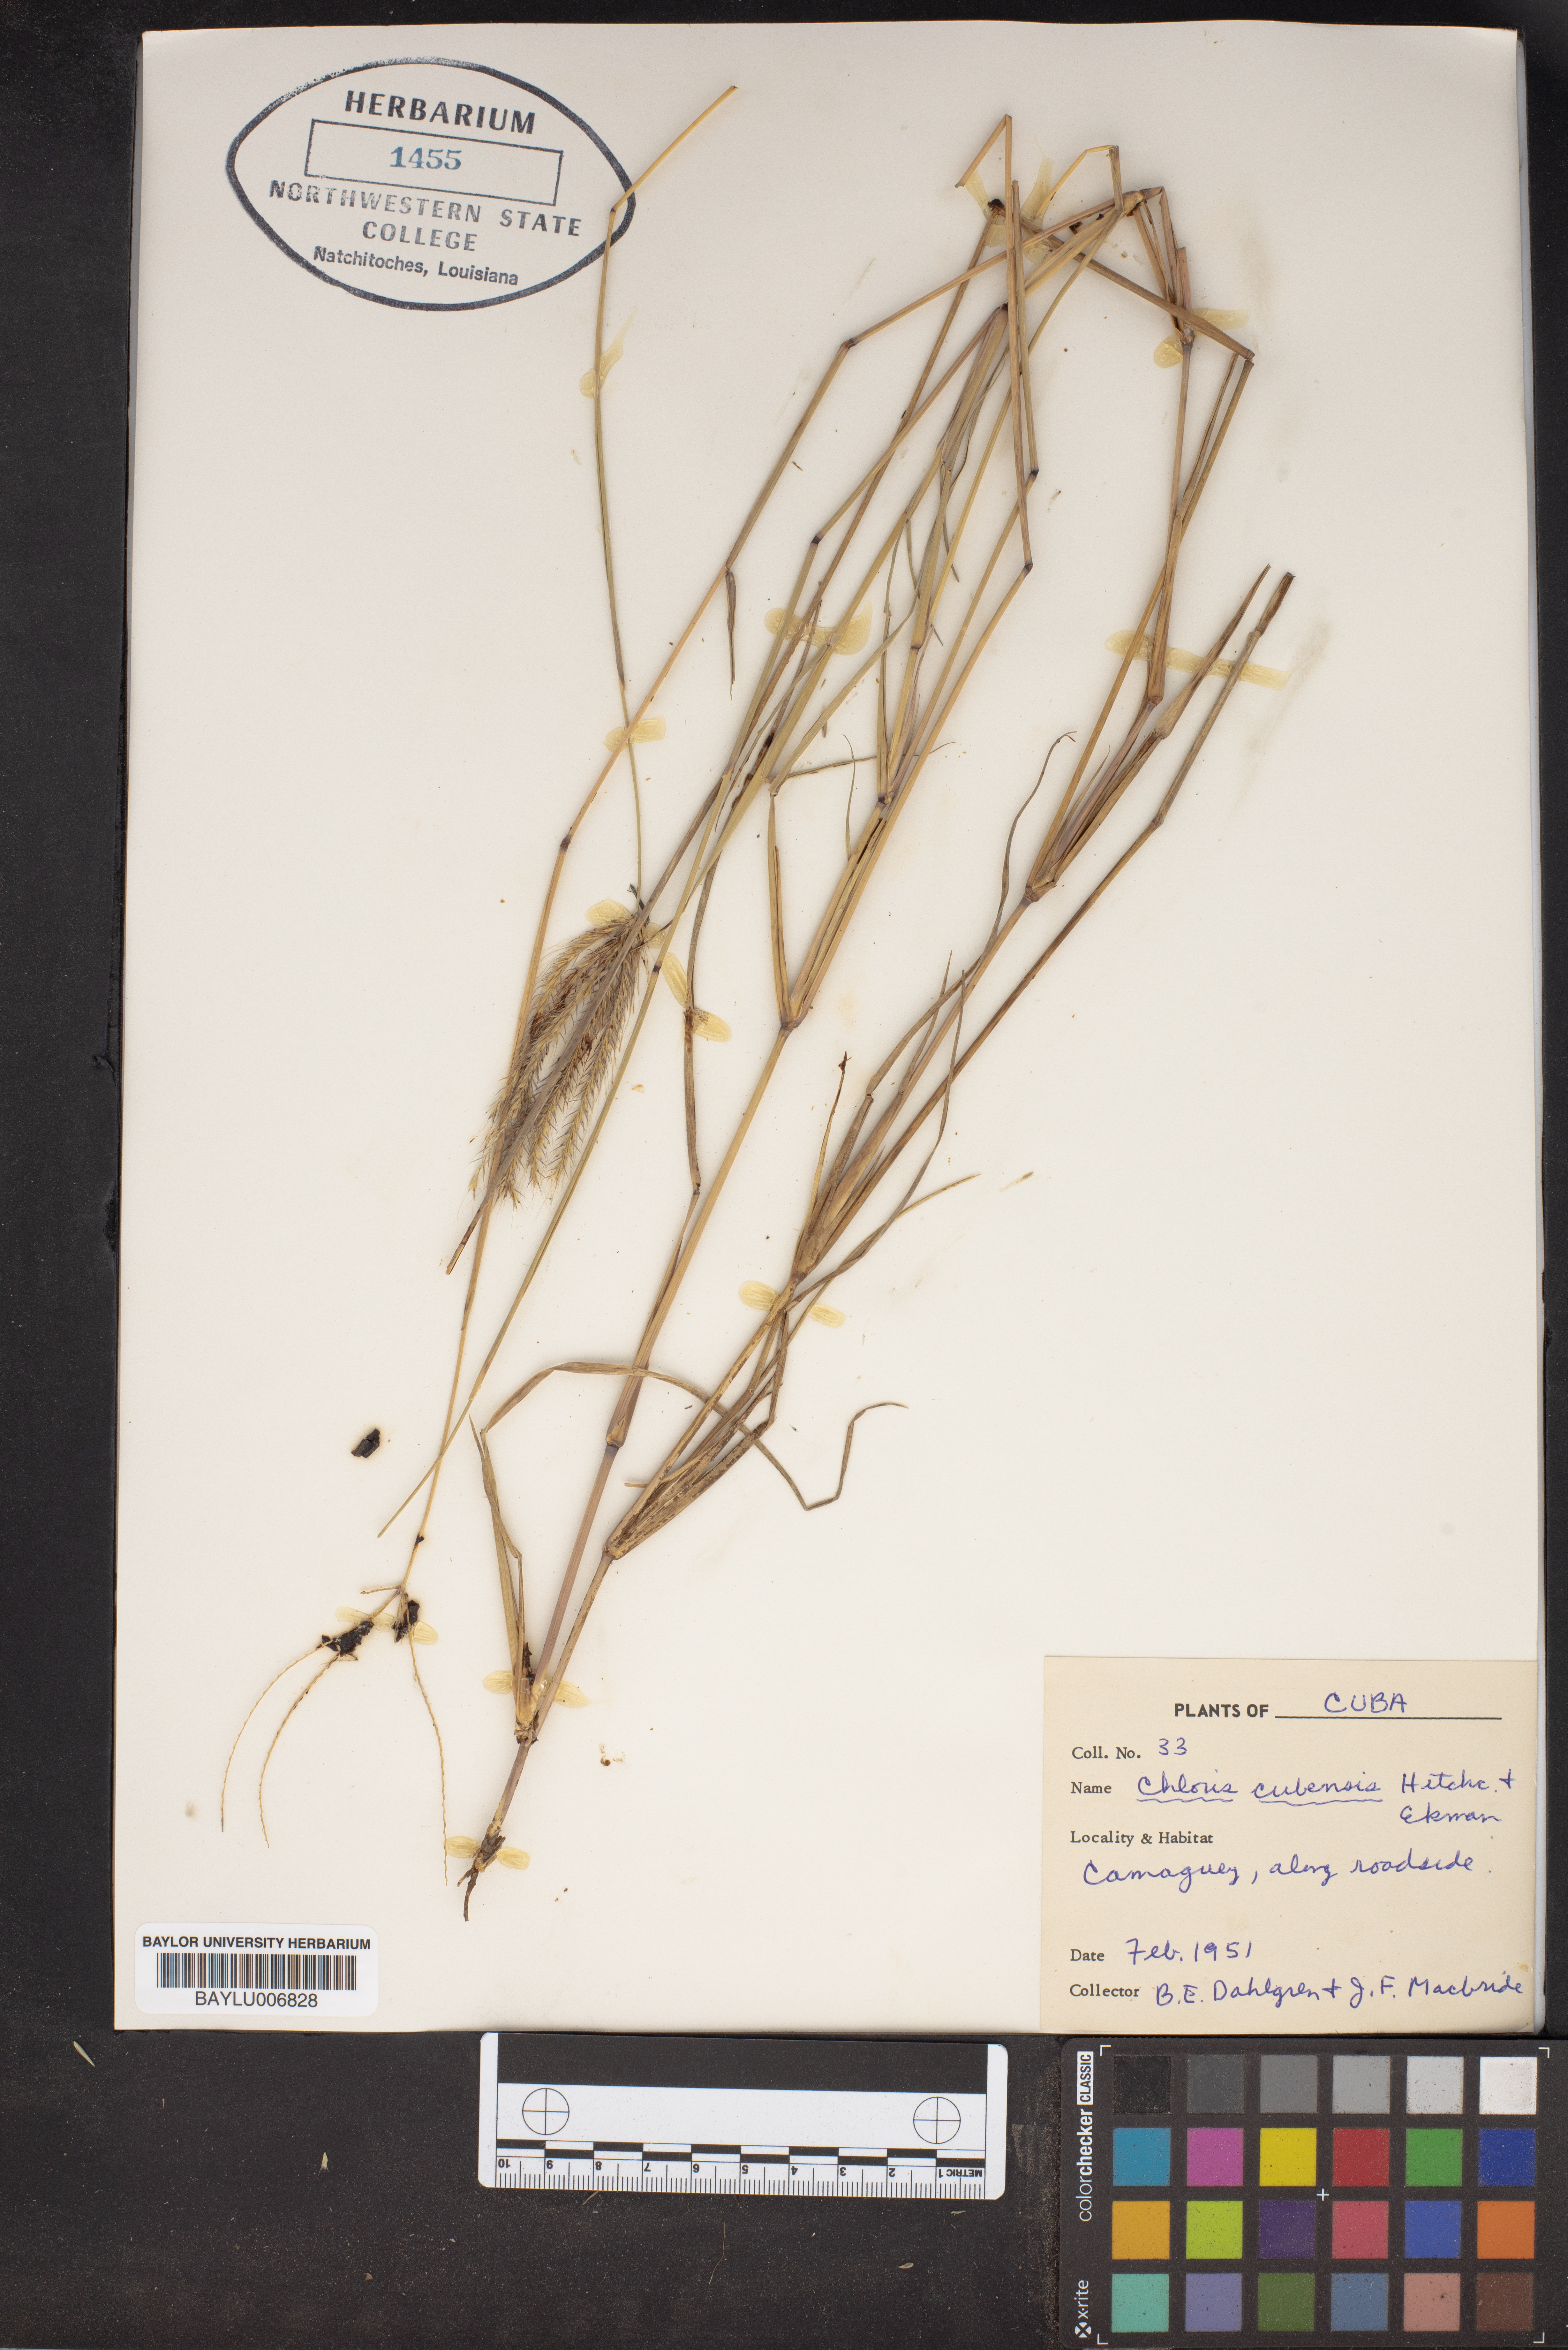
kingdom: Plantae
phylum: Tracheophyta
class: Liliopsida
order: Poales
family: Poaceae
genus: Chloris
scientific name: Chloris cubensis
